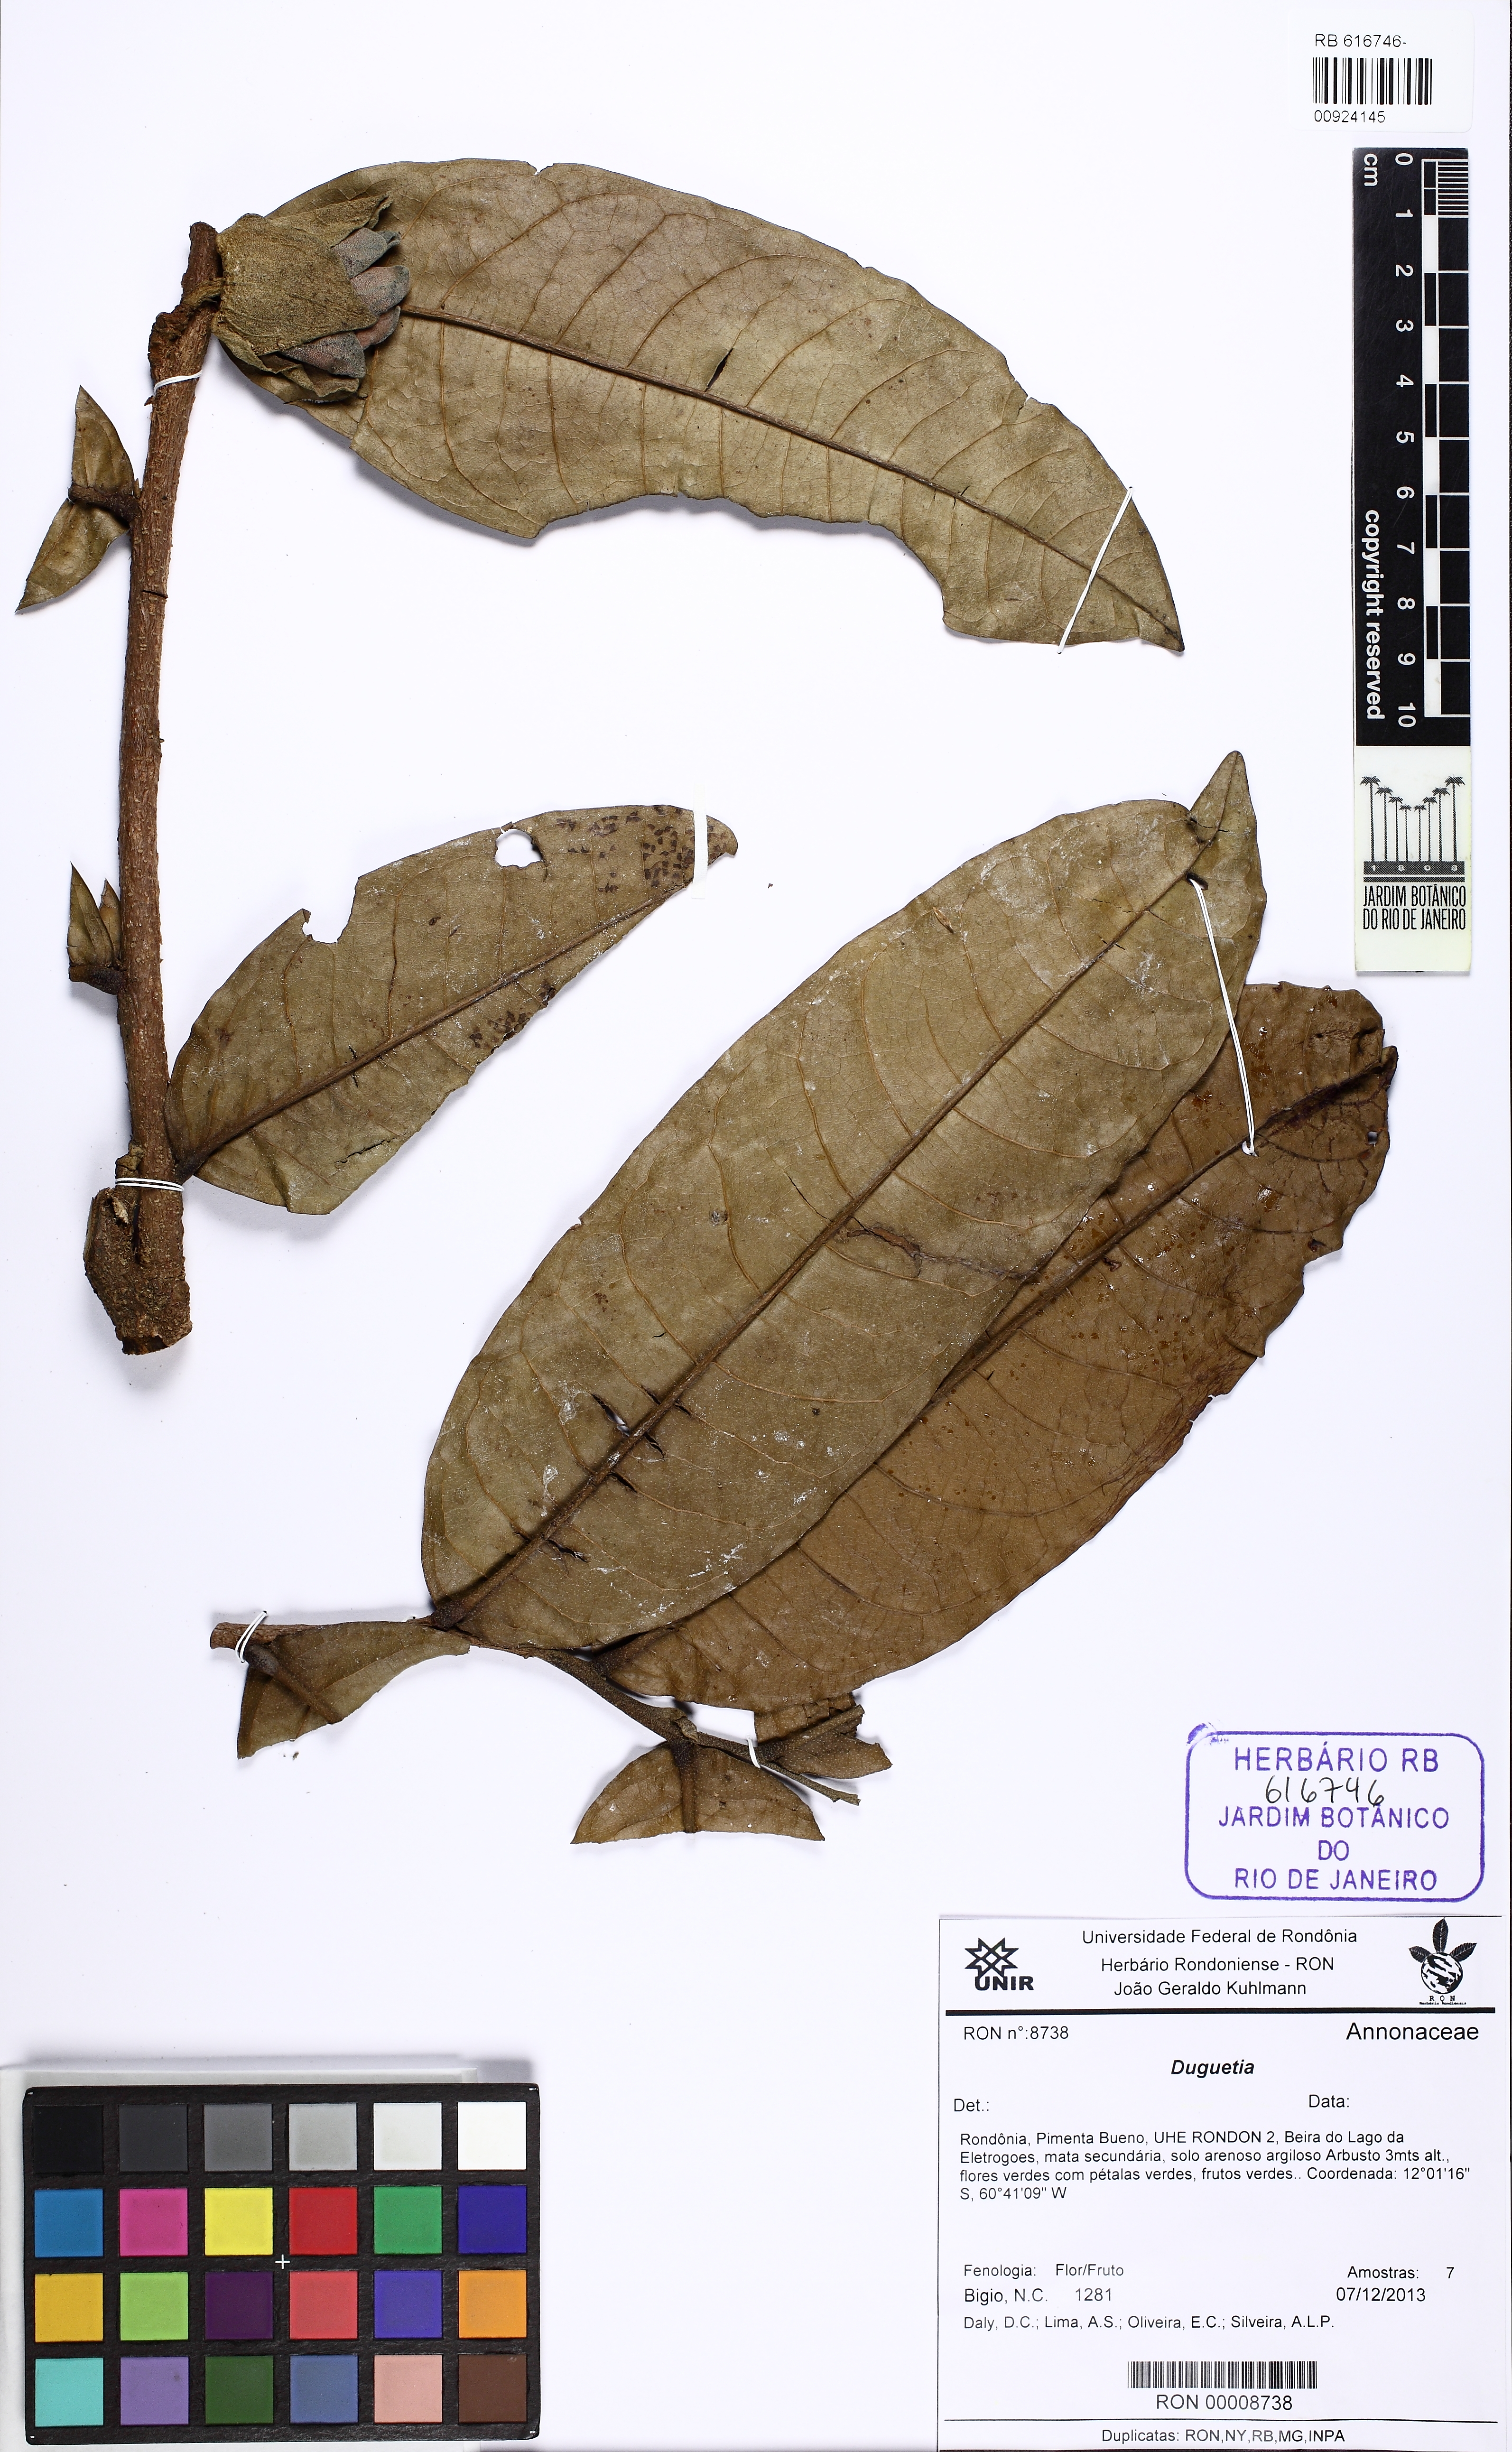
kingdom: Plantae
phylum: Tracheophyta
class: Magnoliopsida
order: Magnoliales
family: Annonaceae
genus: Duguetia
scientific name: Duguetia
